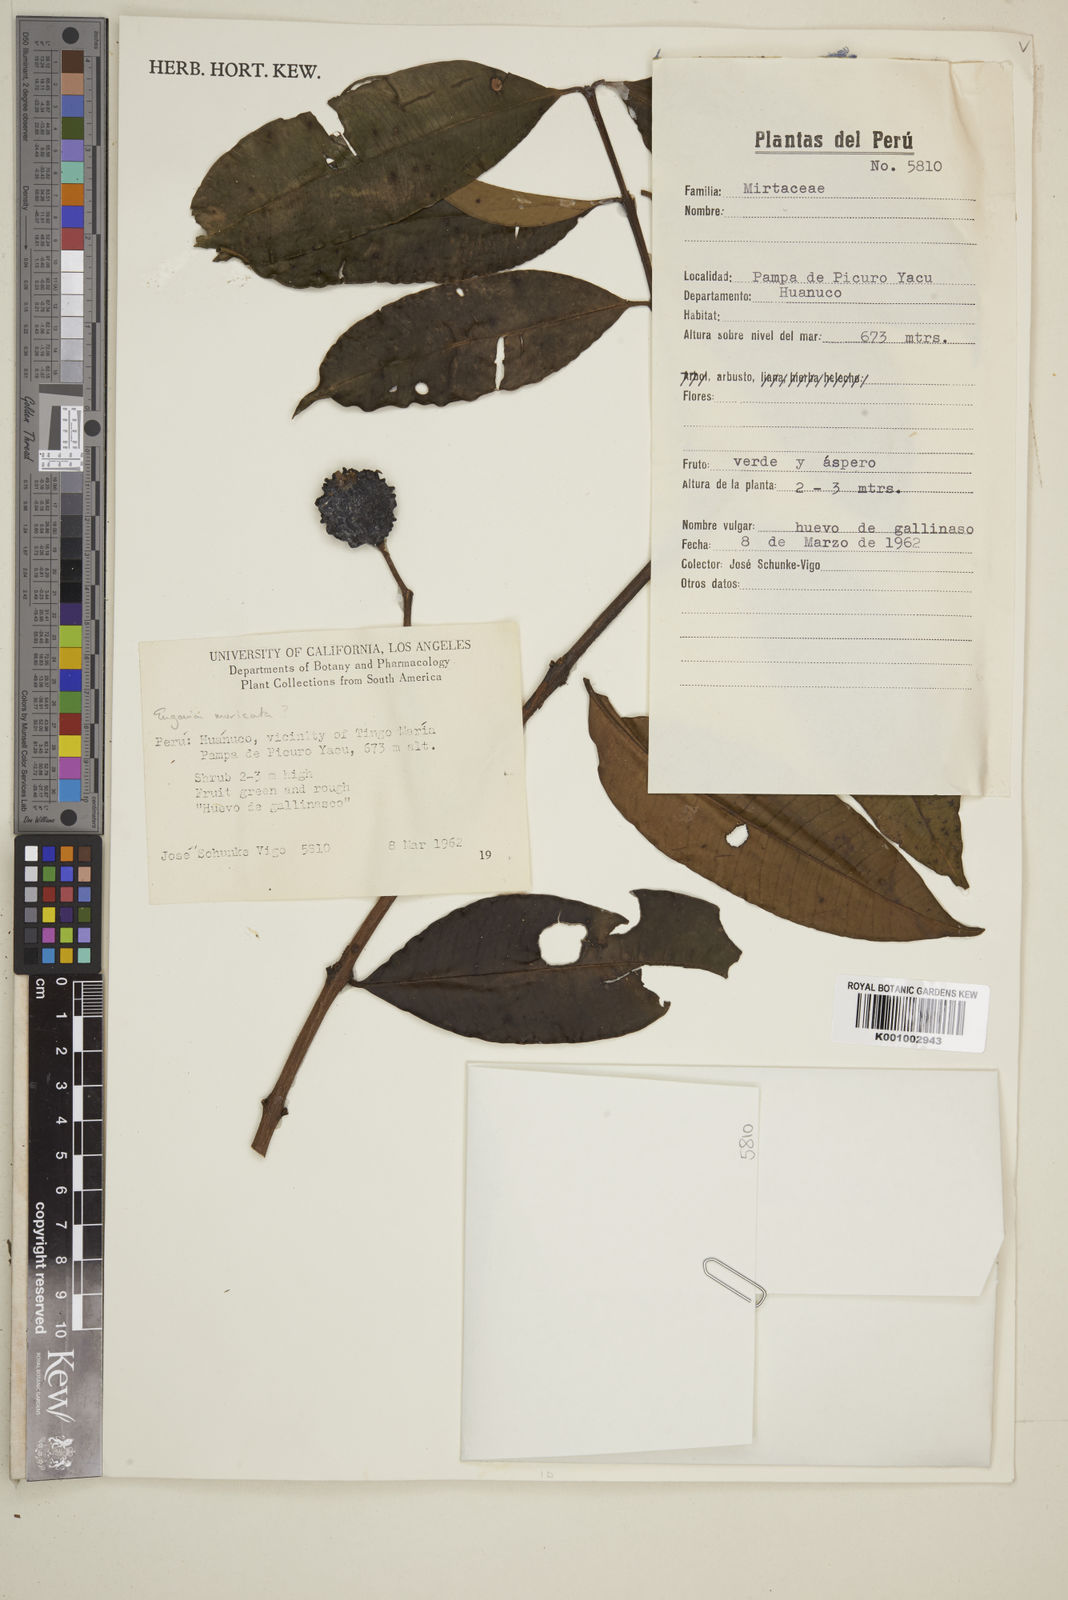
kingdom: Plantae
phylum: Tracheophyta
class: Magnoliopsida
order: Myrtales
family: Myrtaceae
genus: Eugenia
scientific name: Eugenia muricata
